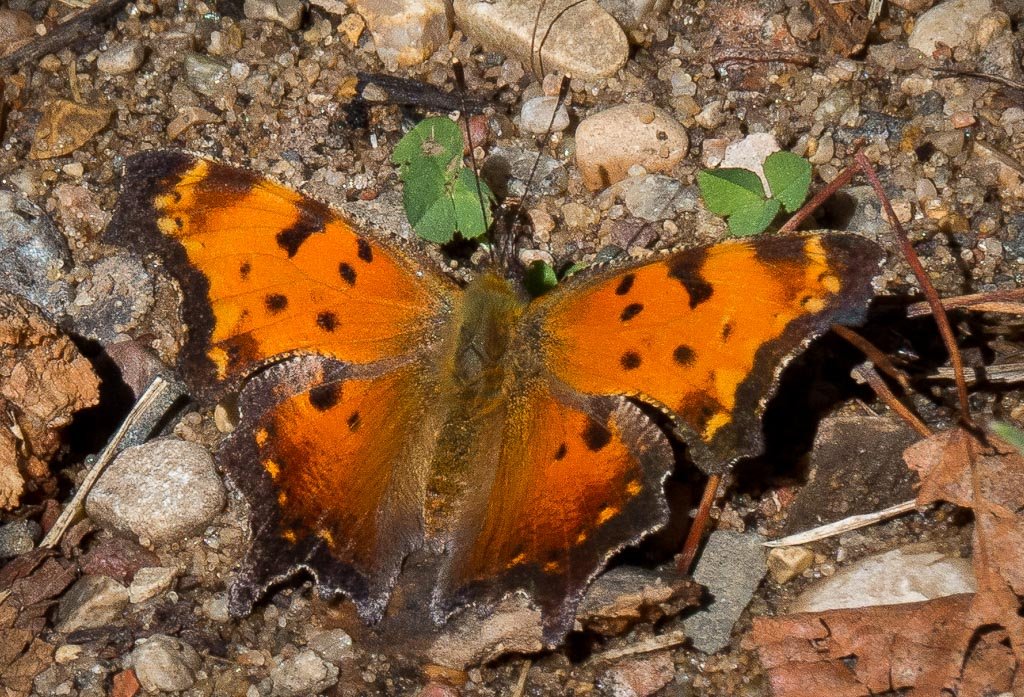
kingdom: Animalia
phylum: Arthropoda
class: Insecta
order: Lepidoptera
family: Nymphalidae
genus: Polygonia
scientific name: Polygonia progne
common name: Gray Comma
